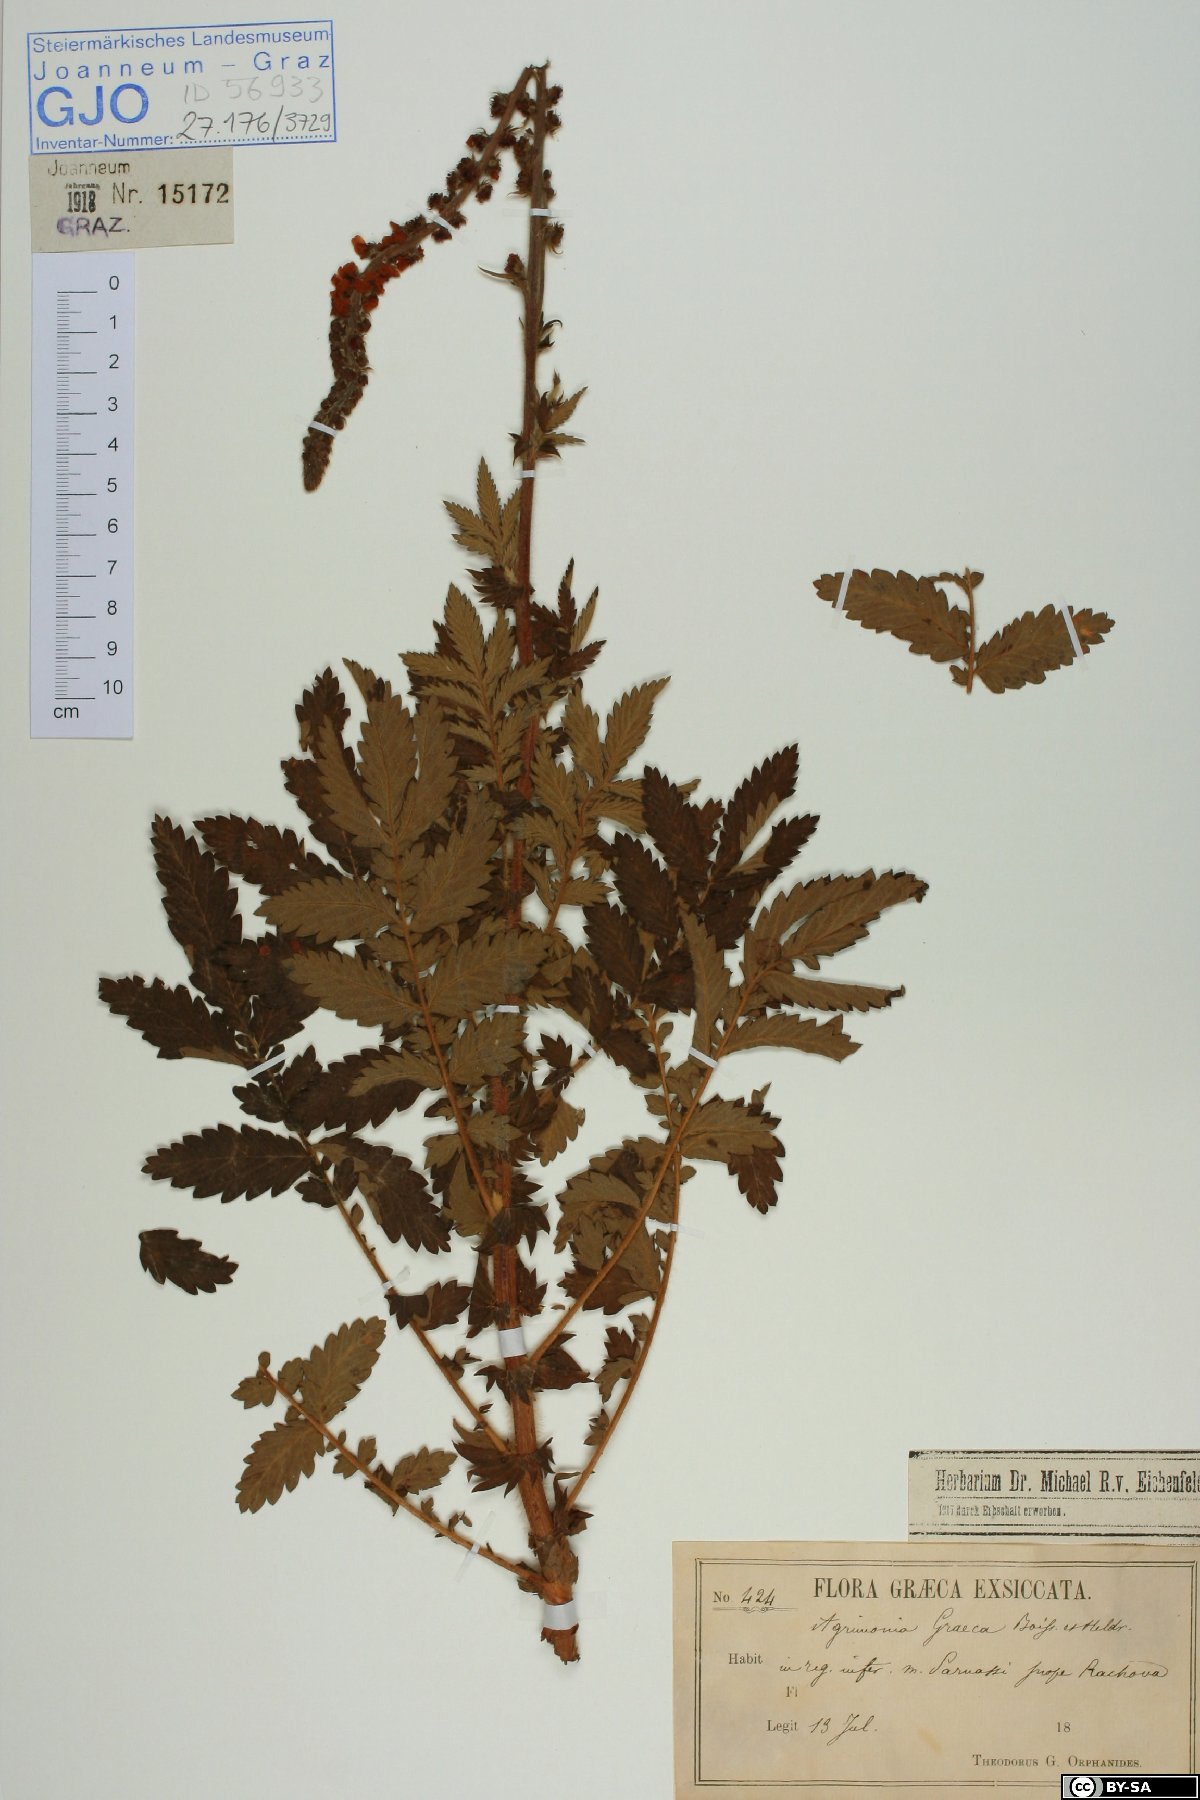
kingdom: Plantae
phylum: Tracheophyta
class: Magnoliopsida
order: Rosales
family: Rosaceae
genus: Agrimonia
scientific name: Agrimonia eupatoria
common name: Agrimony
